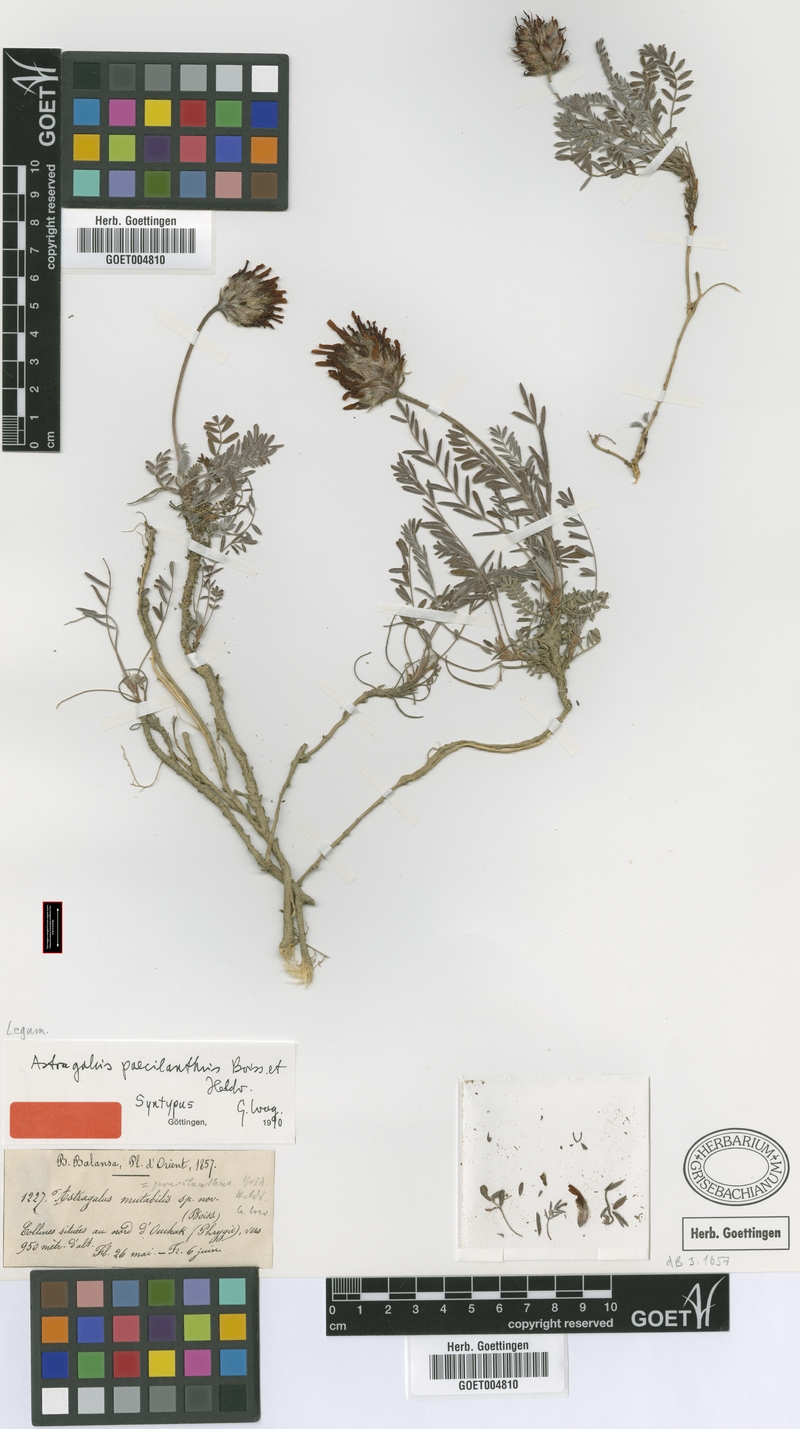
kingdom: Plantae
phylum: Tracheophyta
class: Magnoliopsida
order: Fabales
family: Fabaceae
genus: Astragalus
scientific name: Astragalus sibthorpianus
